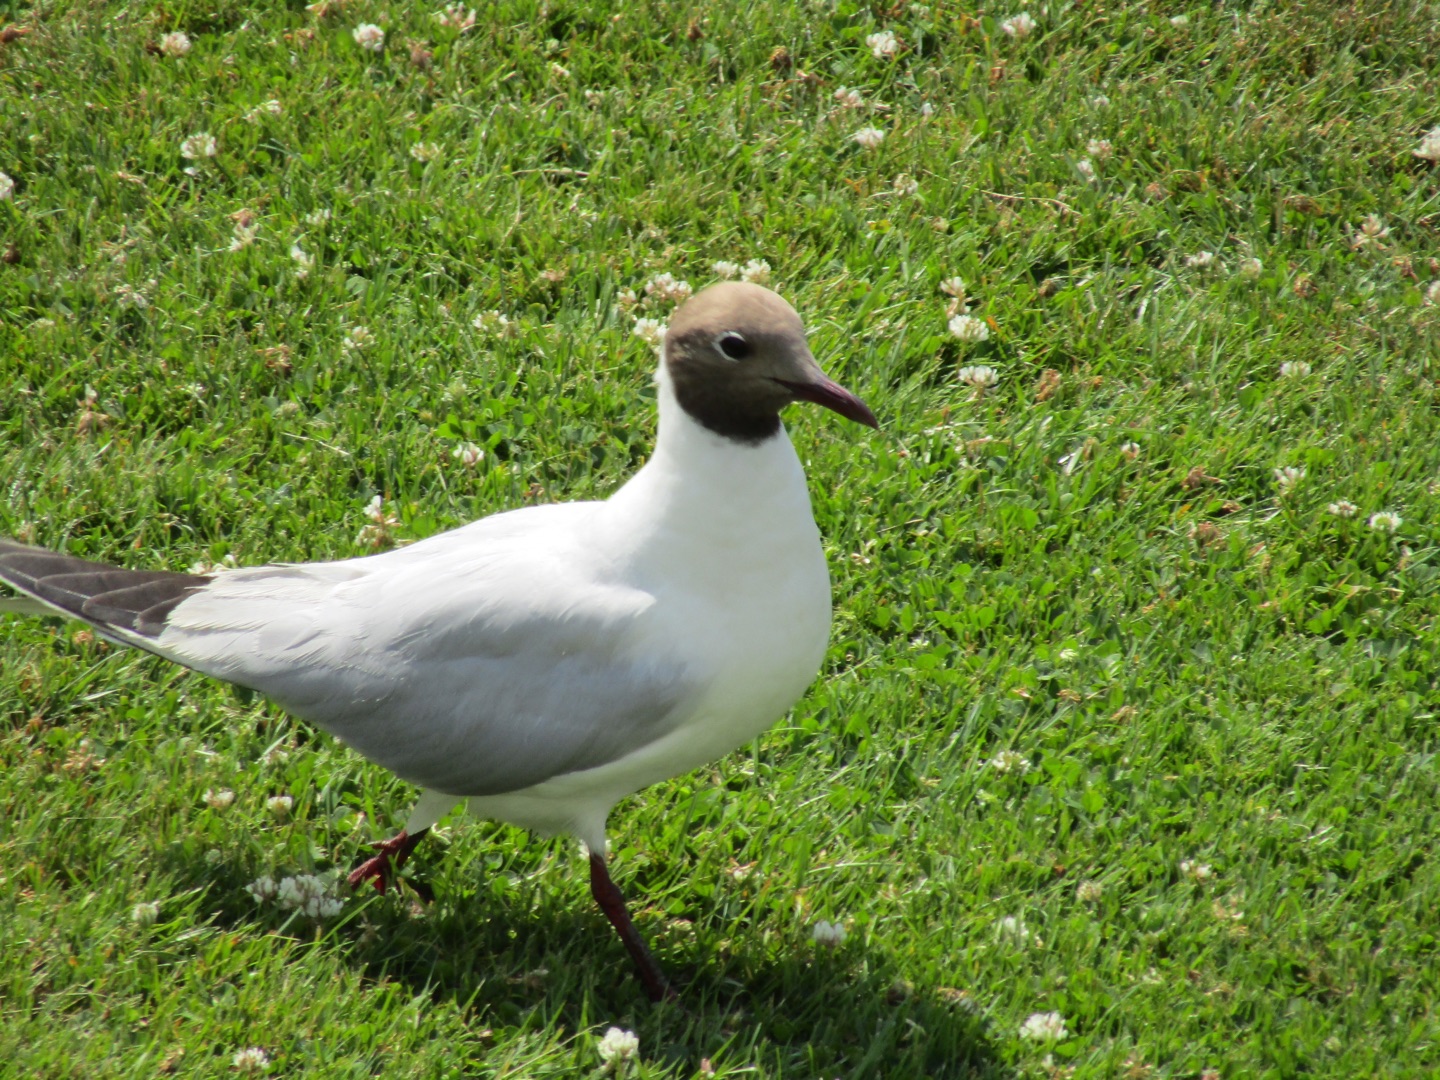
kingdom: Animalia
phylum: Chordata
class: Aves
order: Charadriiformes
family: Laridae
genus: Chroicocephalus
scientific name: Chroicocephalus ridibundus
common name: Hættemåge
